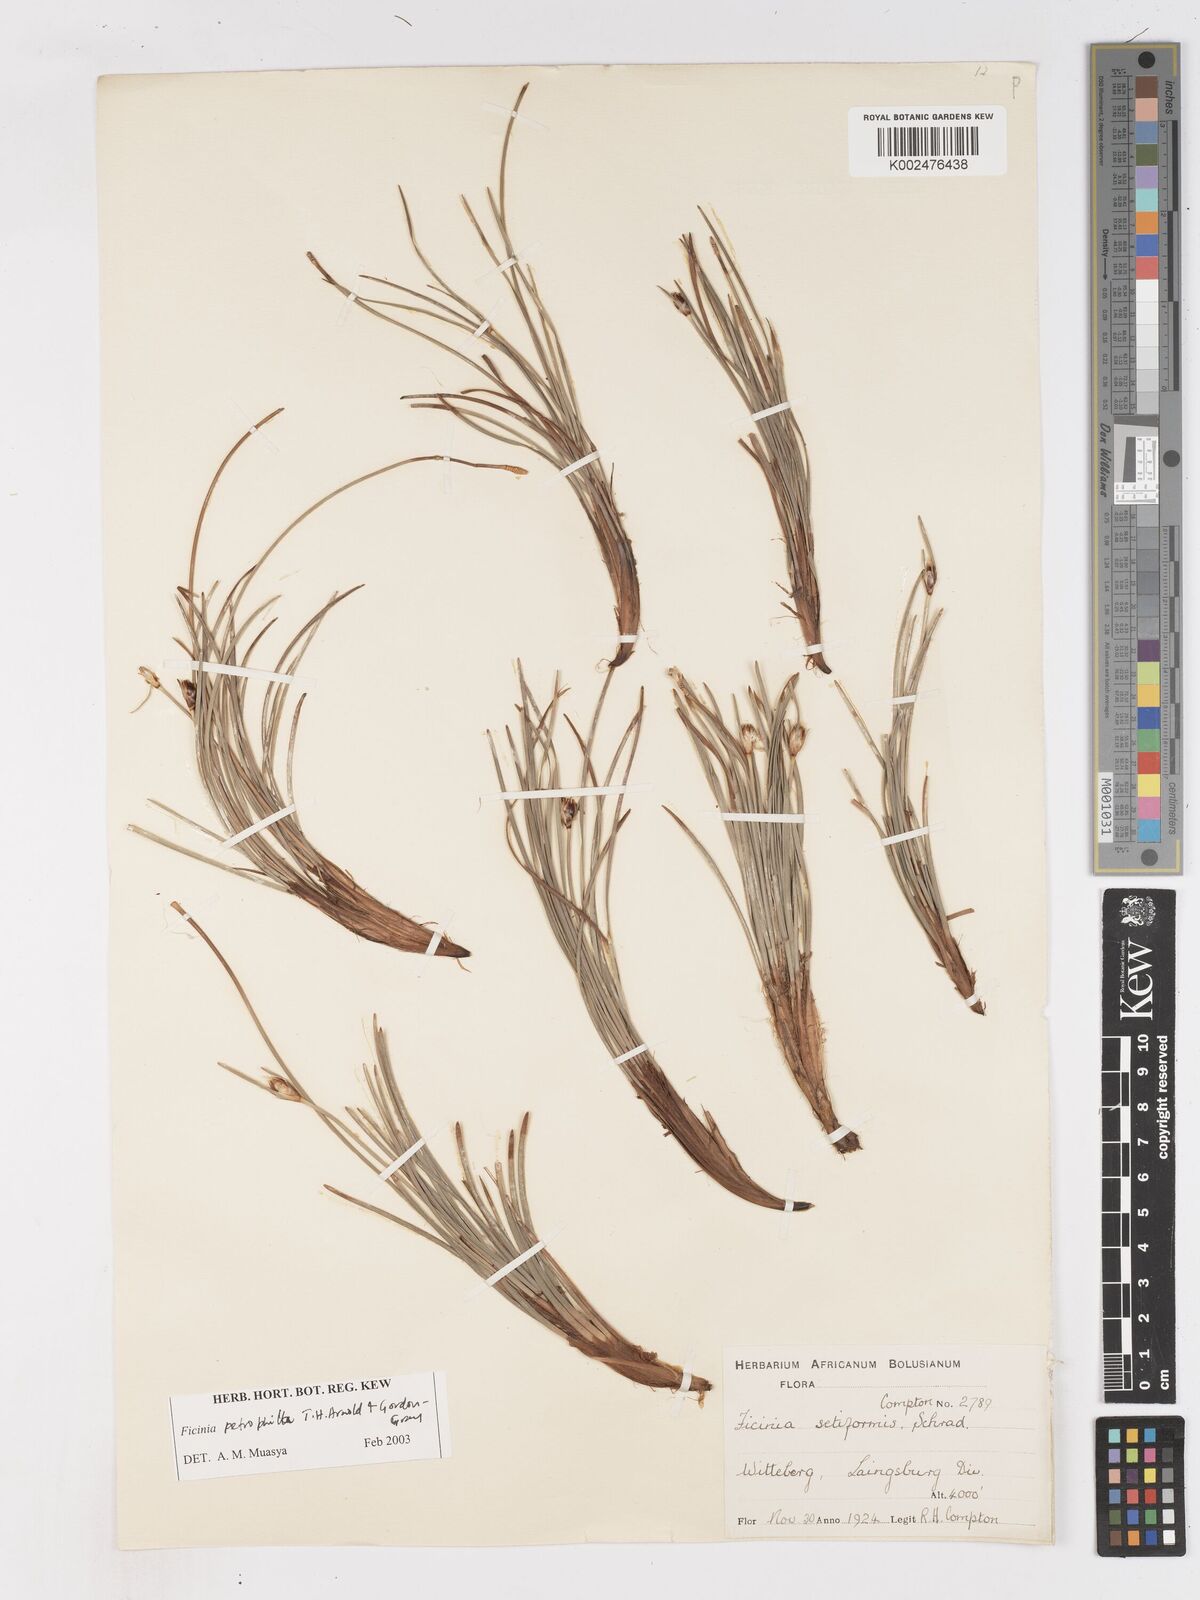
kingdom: Plantae
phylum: Tracheophyta
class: Liliopsida
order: Poales
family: Cyperaceae
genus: Ficinia
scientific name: Ficinia petrophylla
